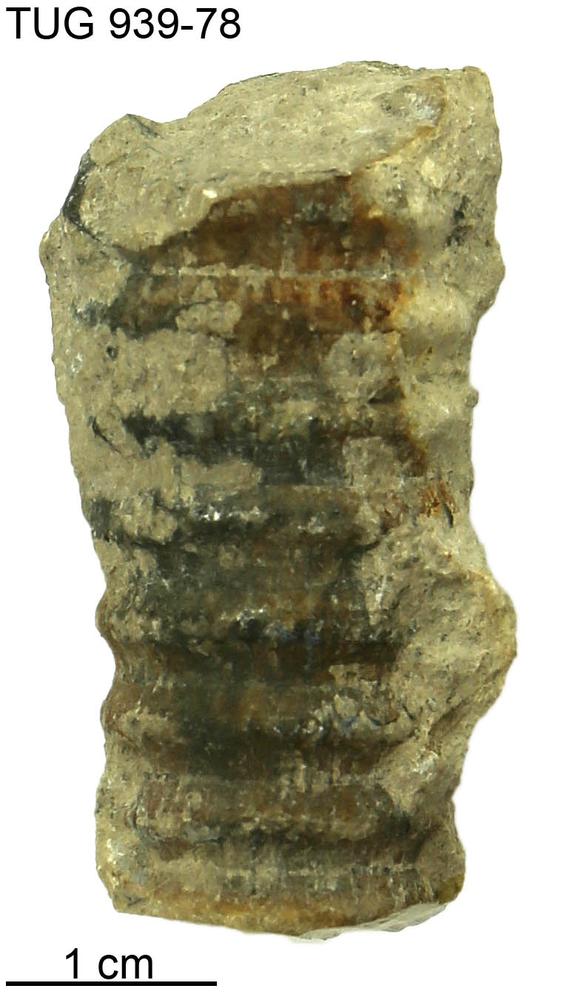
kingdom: Animalia
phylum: Mollusca
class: Cephalopoda
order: Orthocerida
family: Pseudorthoceratidae
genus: Spyroceras
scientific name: Spyroceras
